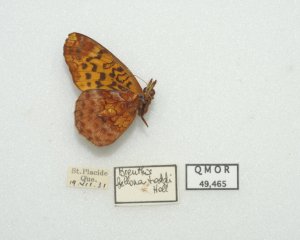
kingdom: Animalia
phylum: Arthropoda
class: Insecta
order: Lepidoptera
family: Nymphalidae
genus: Clossiana
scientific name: Clossiana toddi
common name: Meadow Fritillary
